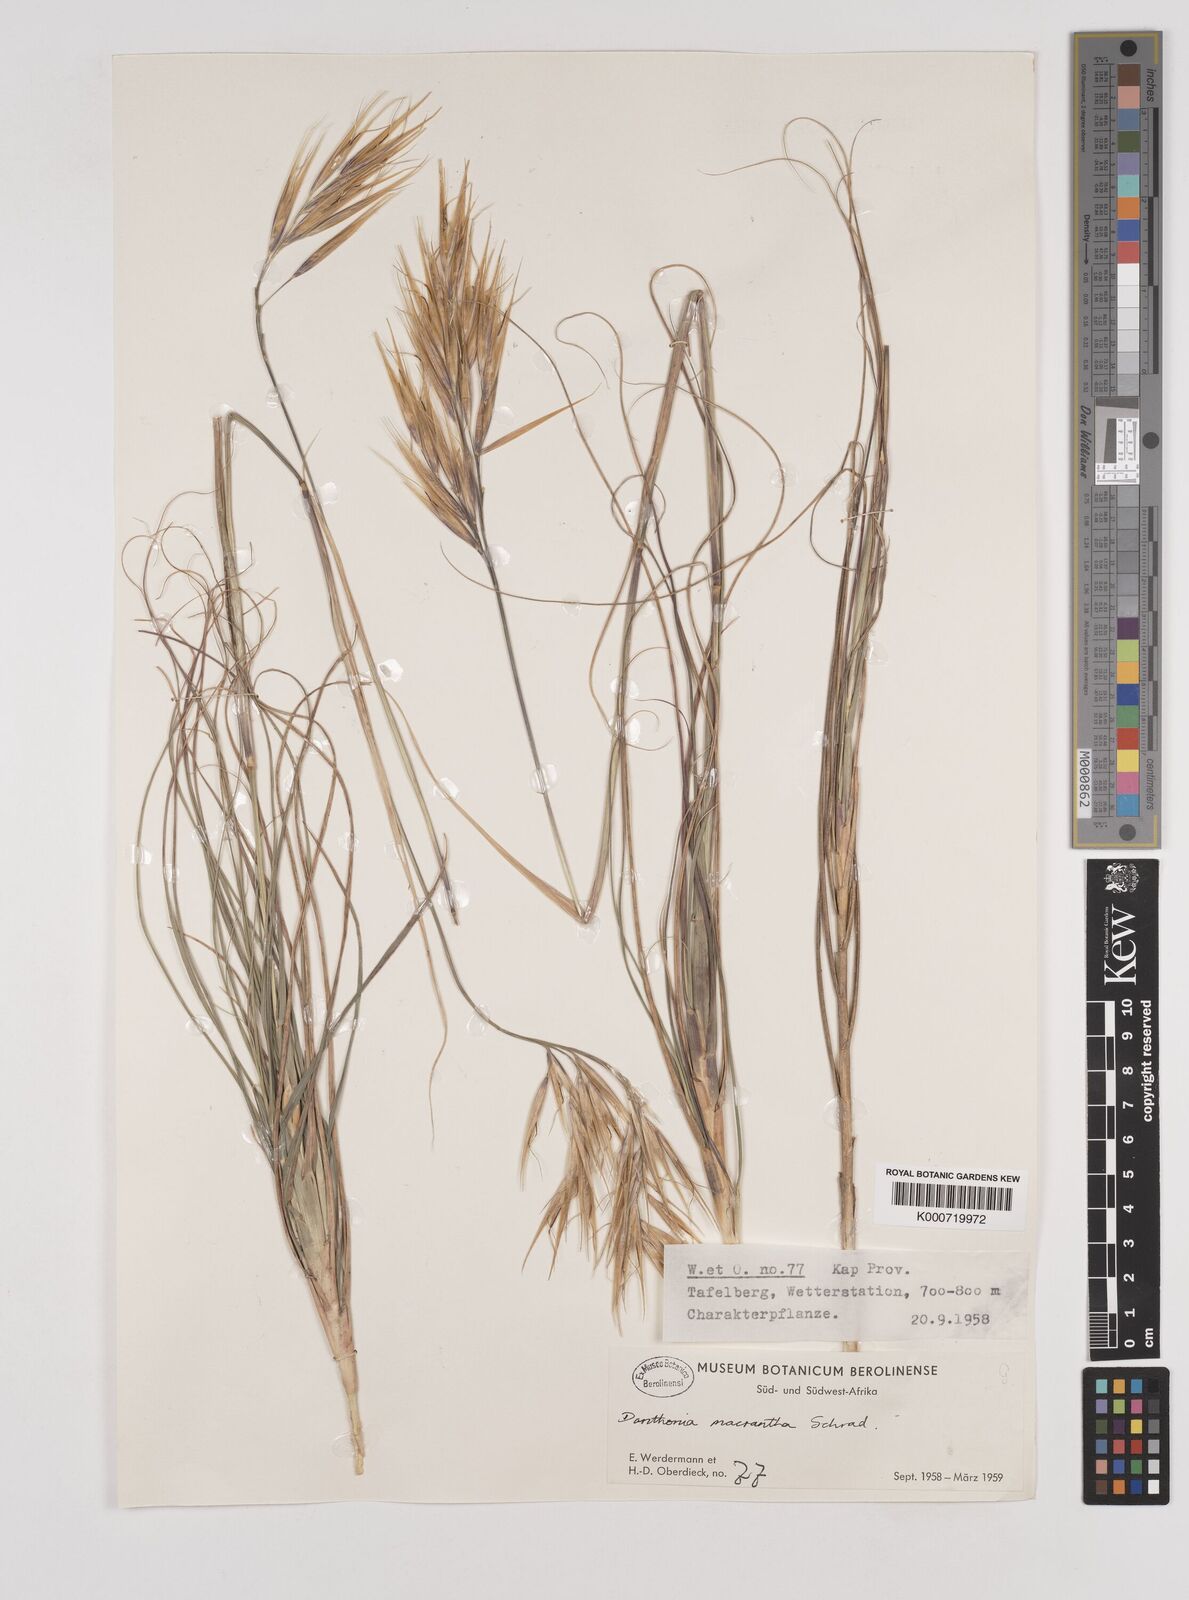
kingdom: Plantae
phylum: Tracheophyta
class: Liliopsida
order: Poales
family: Poaceae
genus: Pseudopentameris
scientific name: Pseudopentameris macrantha
